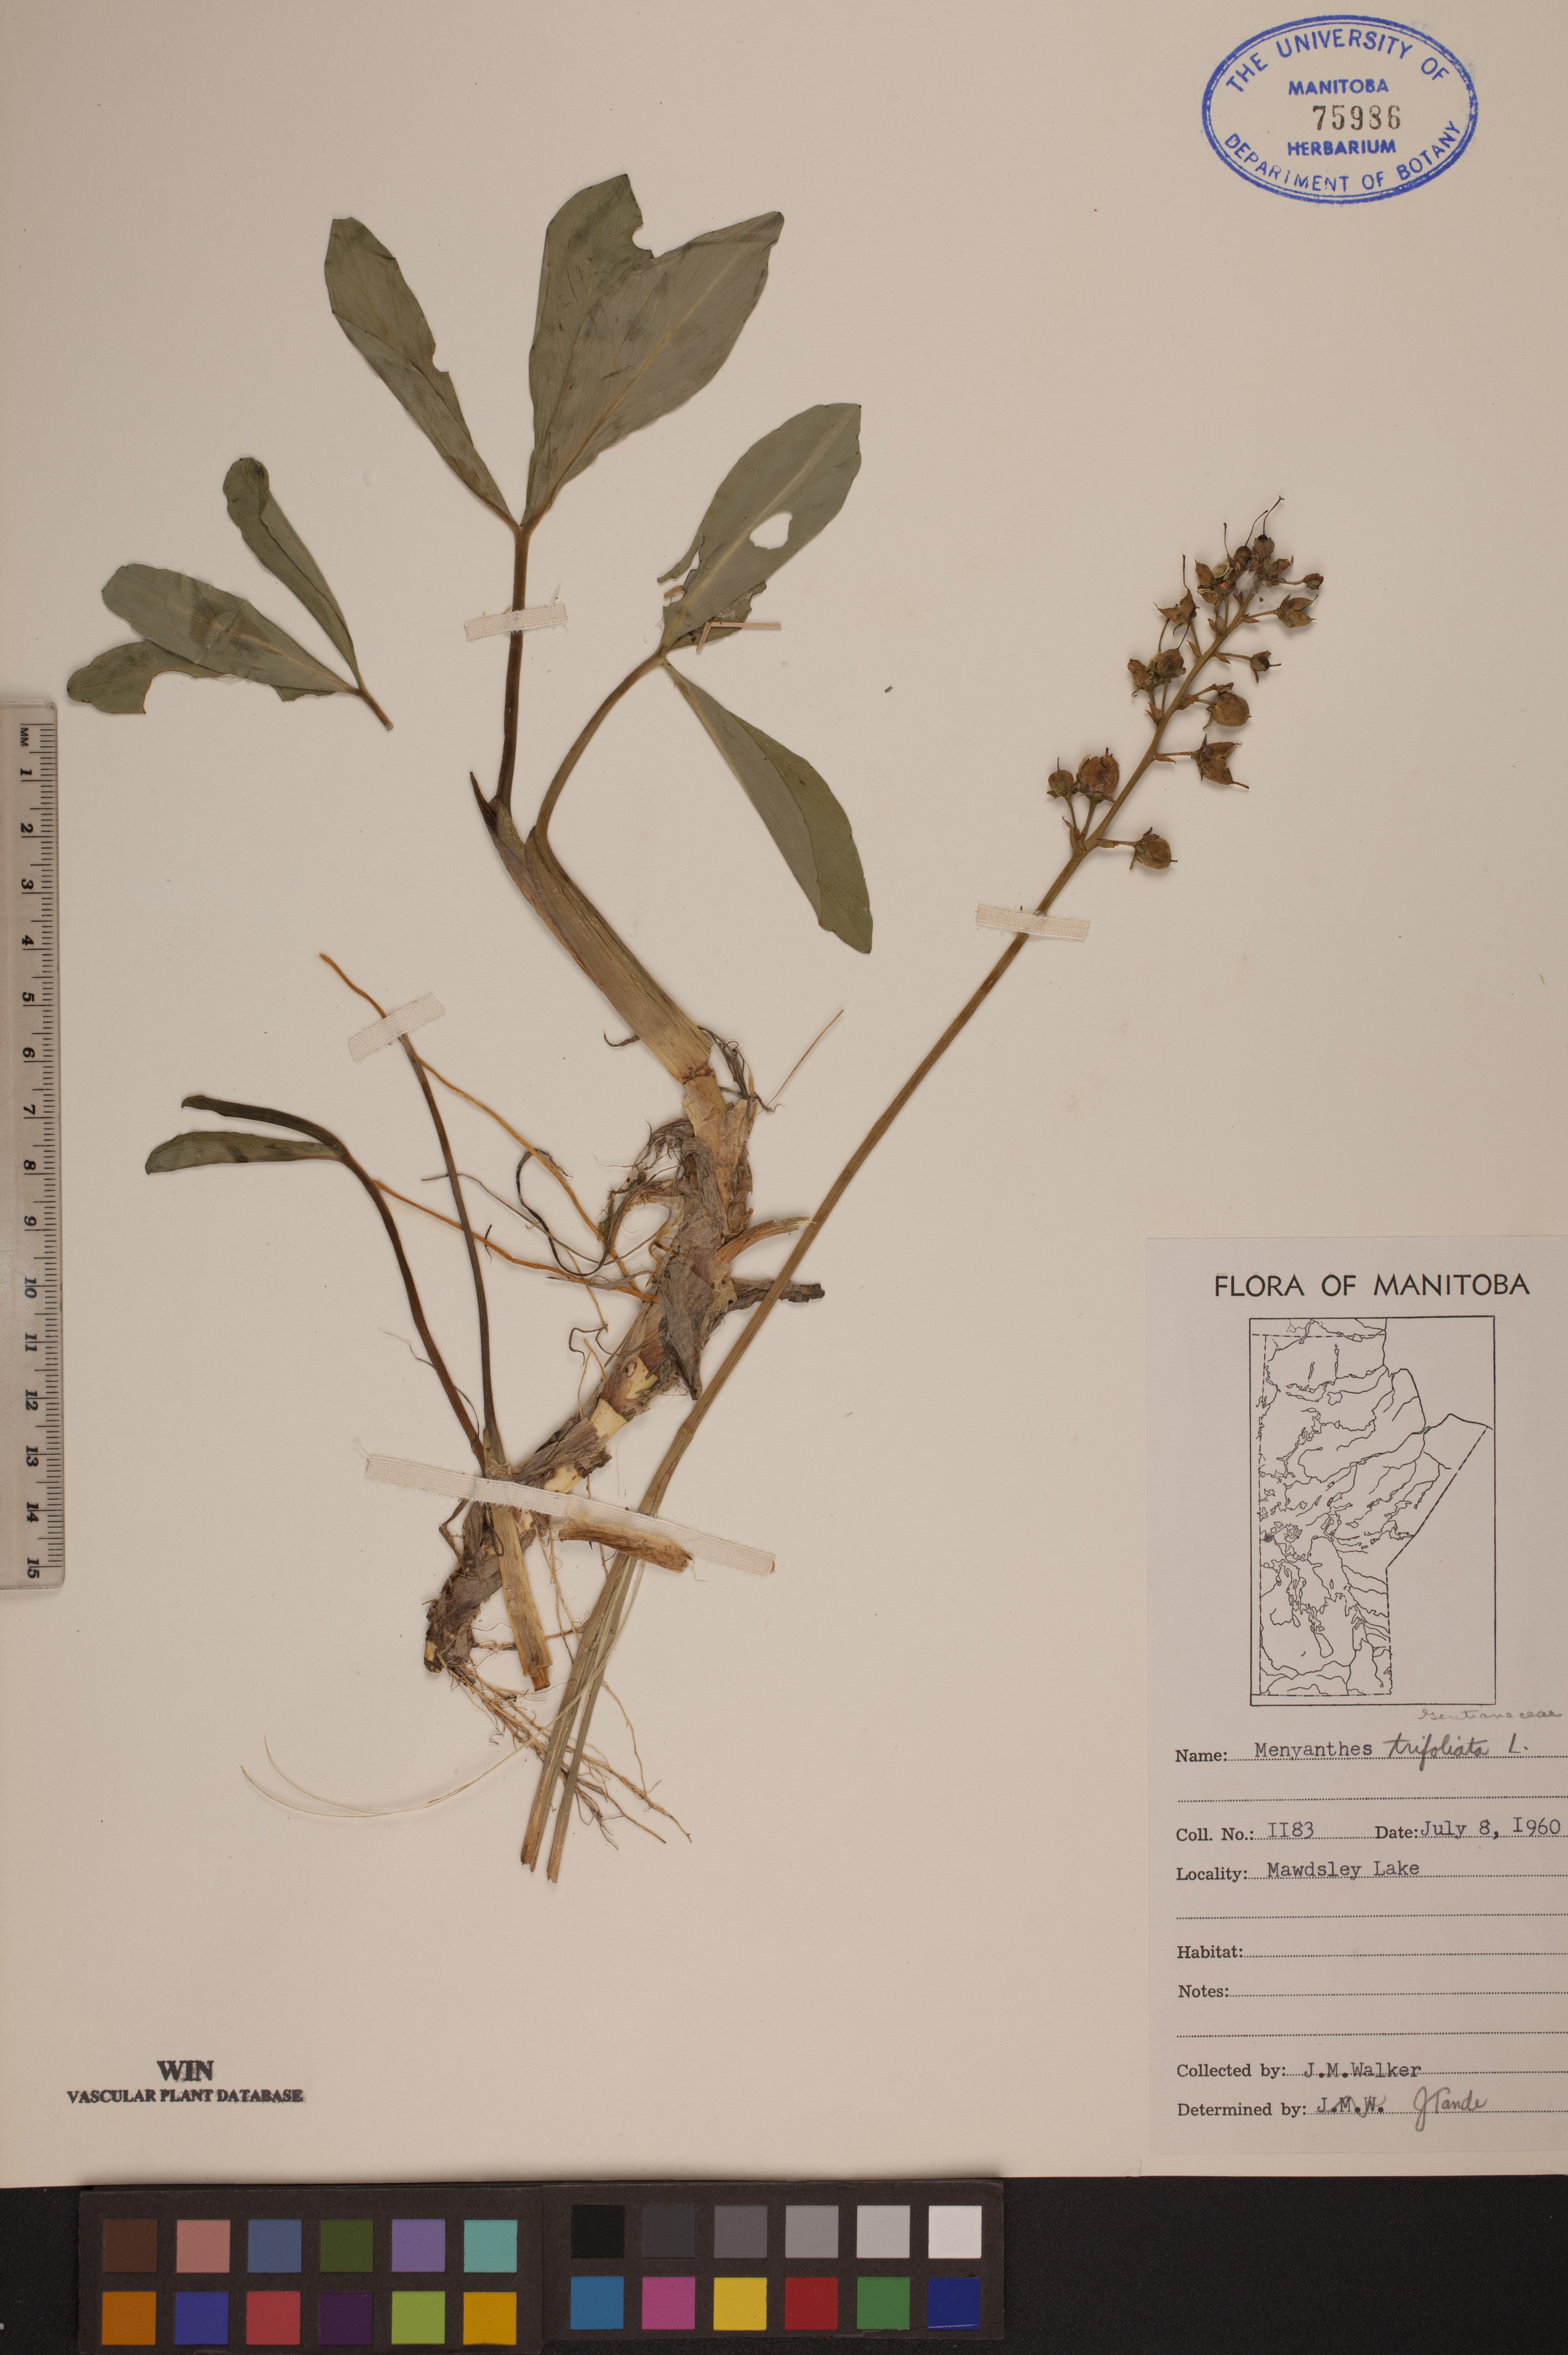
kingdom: Plantae
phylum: Tracheophyta
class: Magnoliopsida
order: Asterales
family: Menyanthaceae
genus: Menyanthes
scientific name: Menyanthes trifoliata
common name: Bogbean
